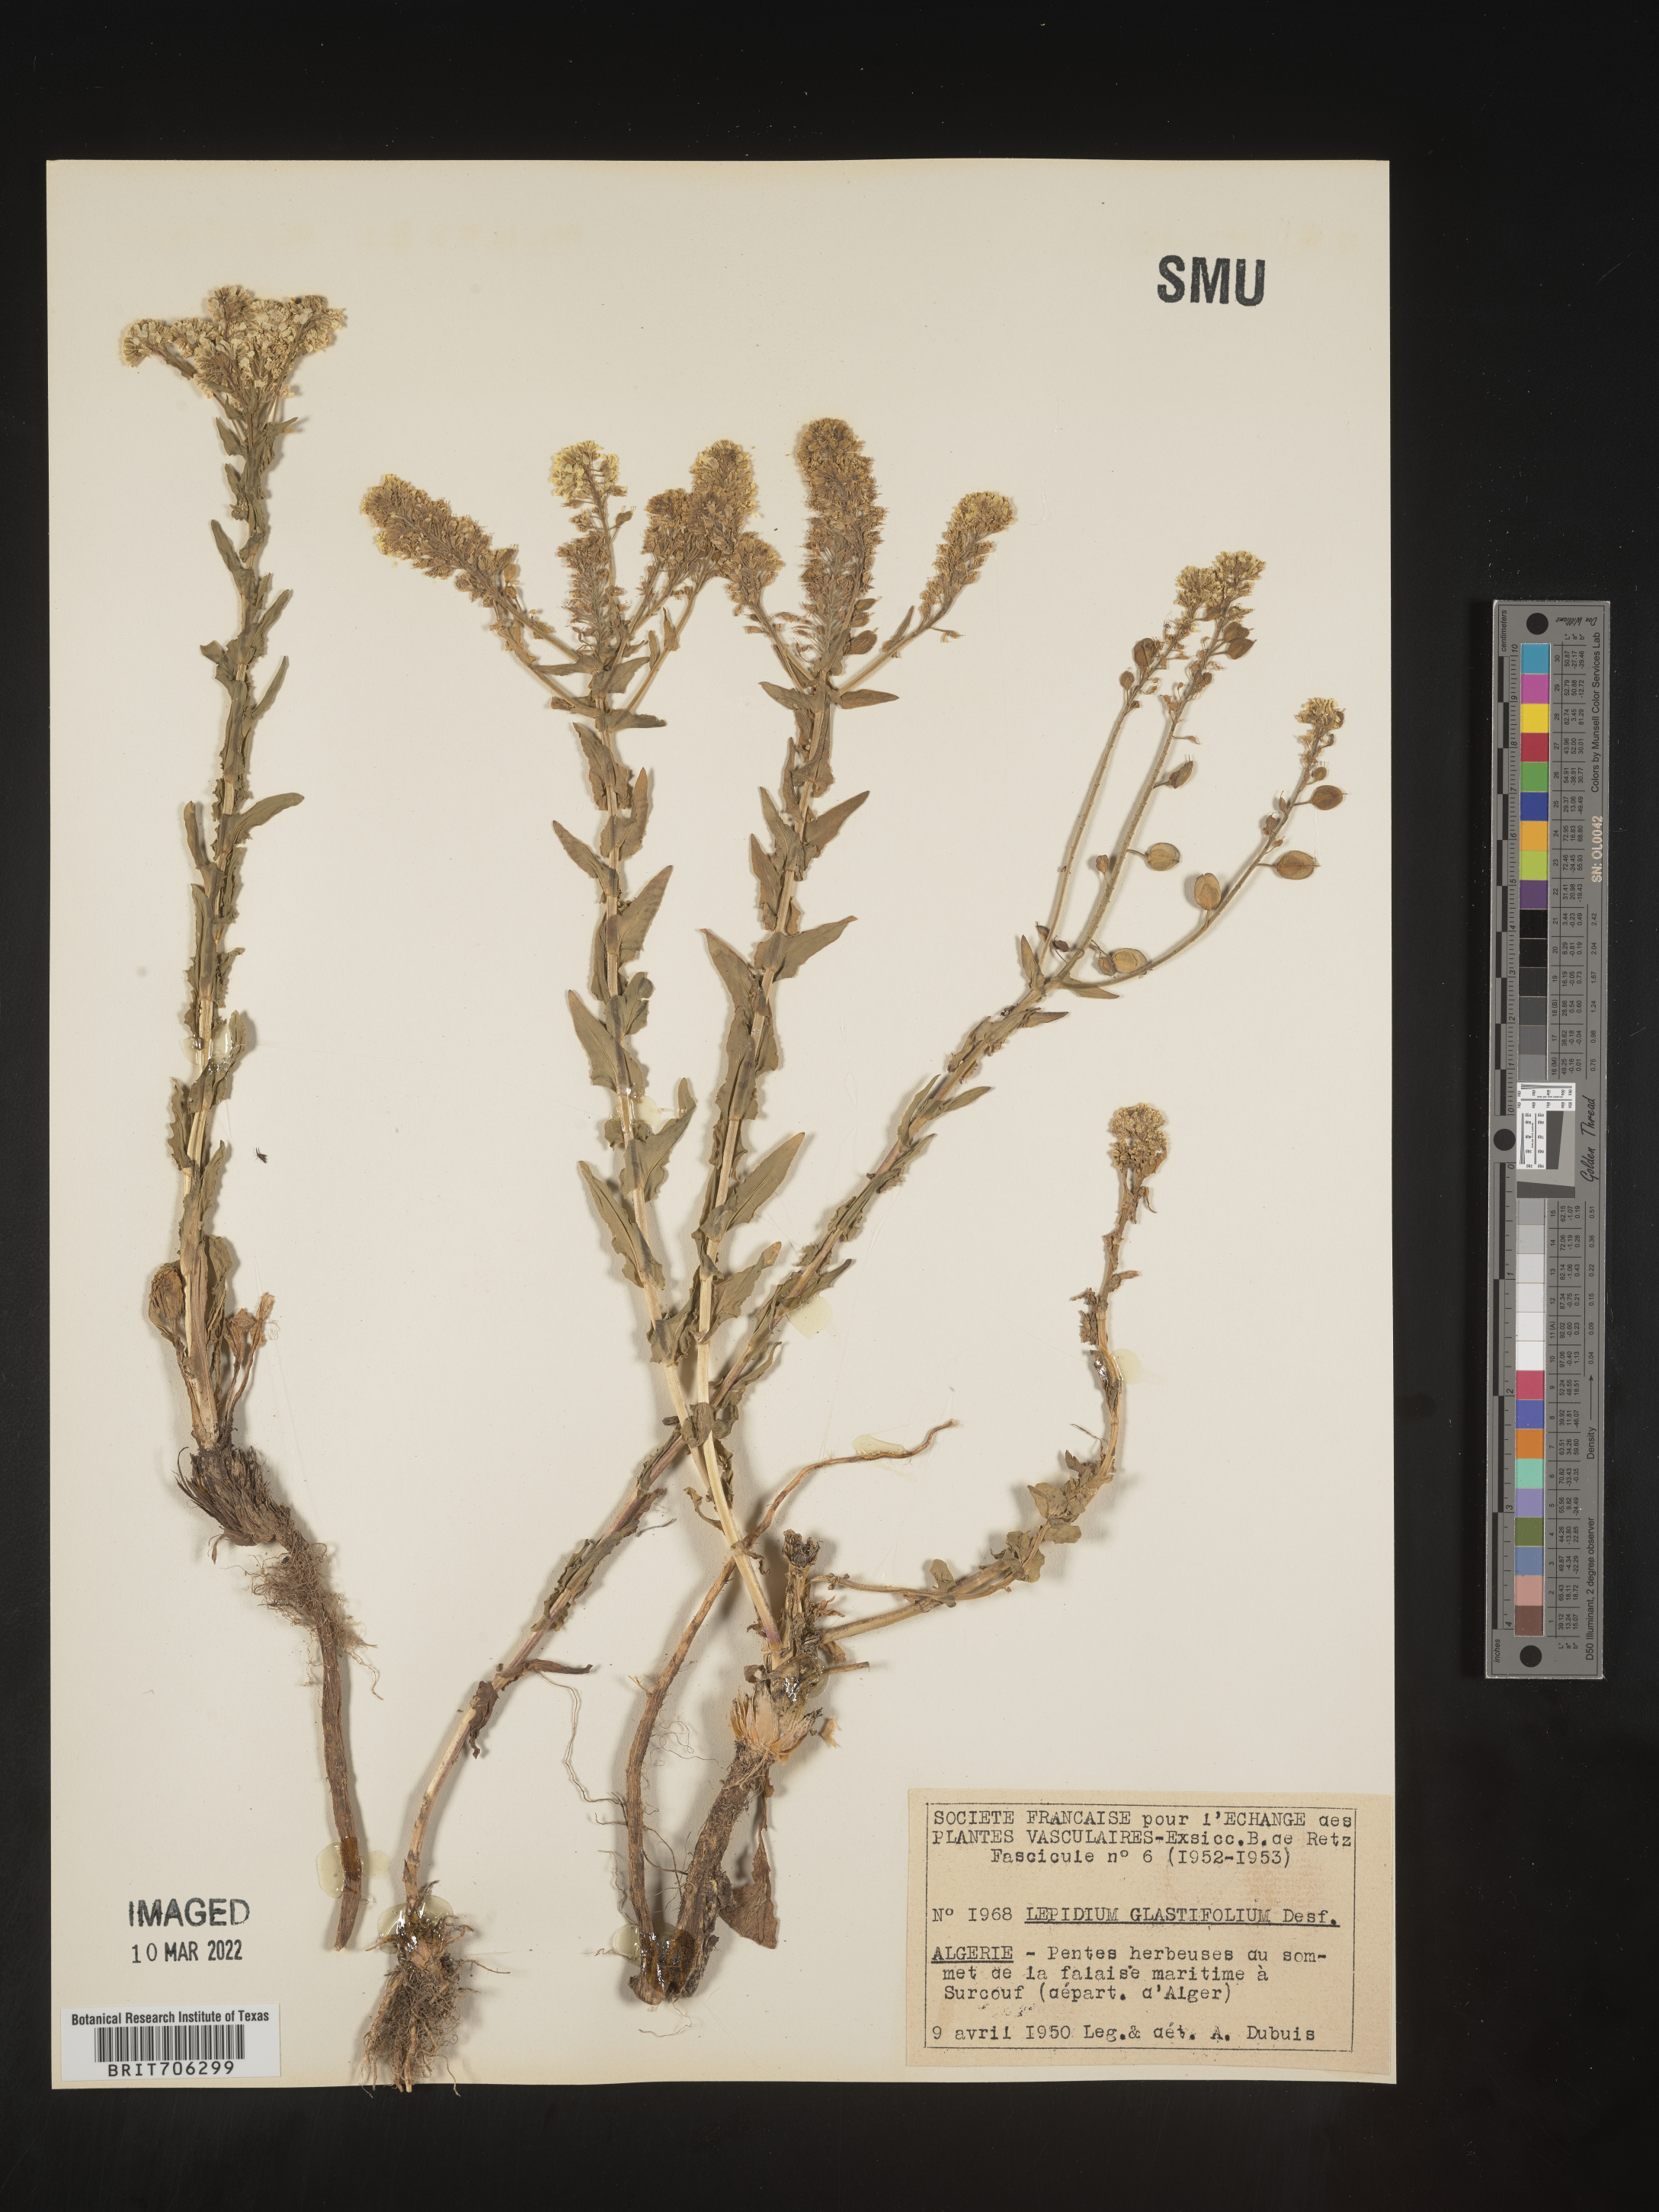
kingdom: Plantae
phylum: Tracheophyta
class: Magnoliopsida
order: Brassicales
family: Brassicaceae
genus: Lepidium
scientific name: Lepidium
